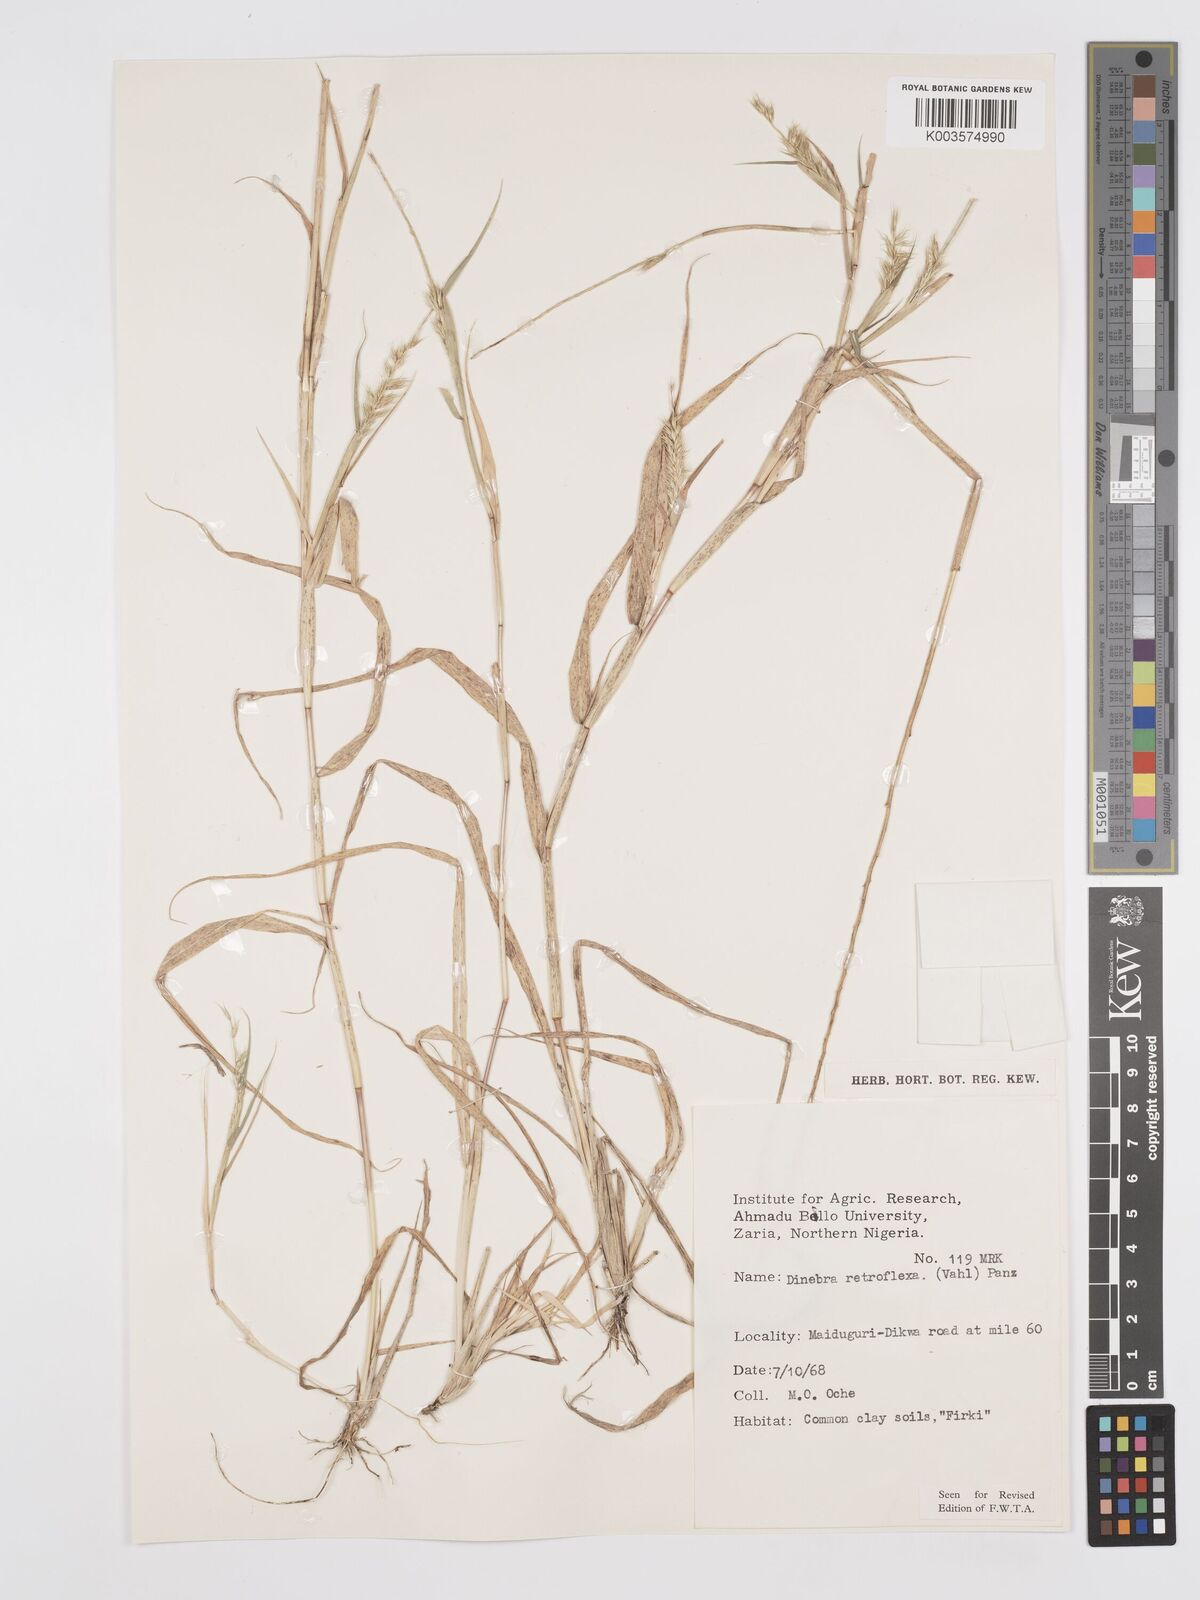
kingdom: Plantae
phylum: Tracheophyta
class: Liliopsida
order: Poales
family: Poaceae
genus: Dinebra
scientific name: Dinebra retroflexa
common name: Viper grass
